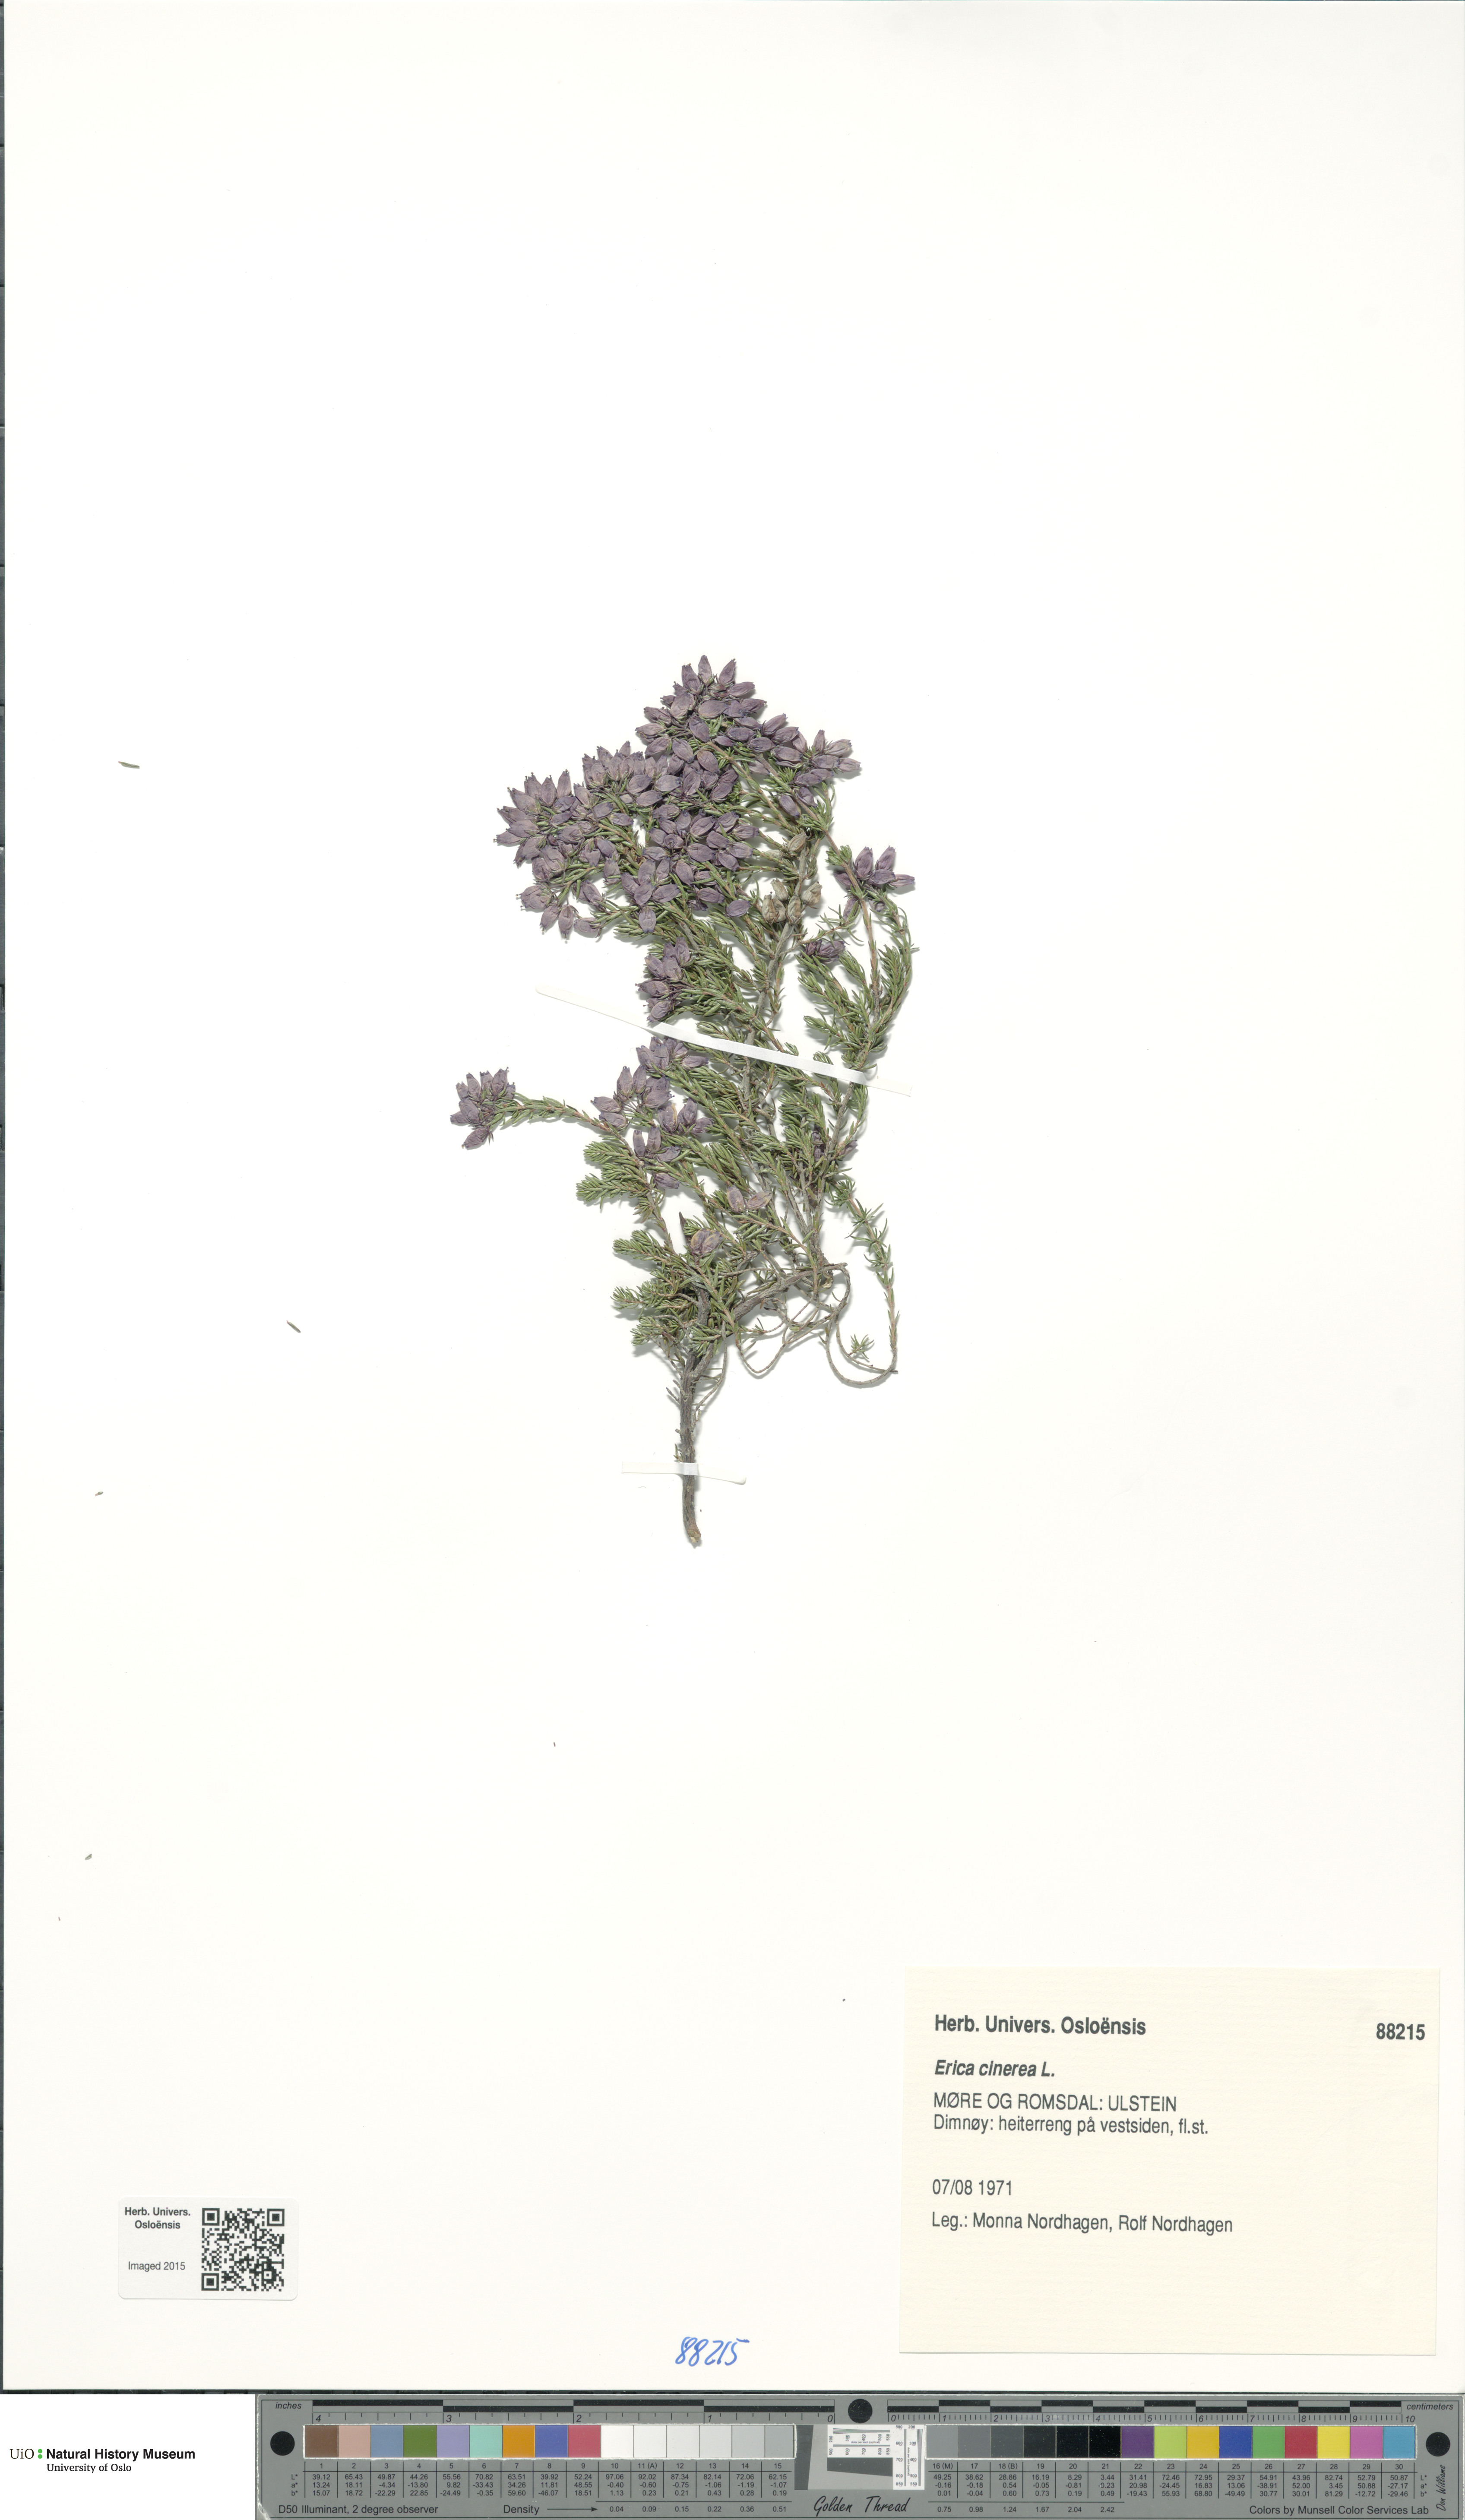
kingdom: Plantae
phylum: Tracheophyta
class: Magnoliopsida
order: Ericales
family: Ericaceae
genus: Erica
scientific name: Erica cinerea
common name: Bell heather
